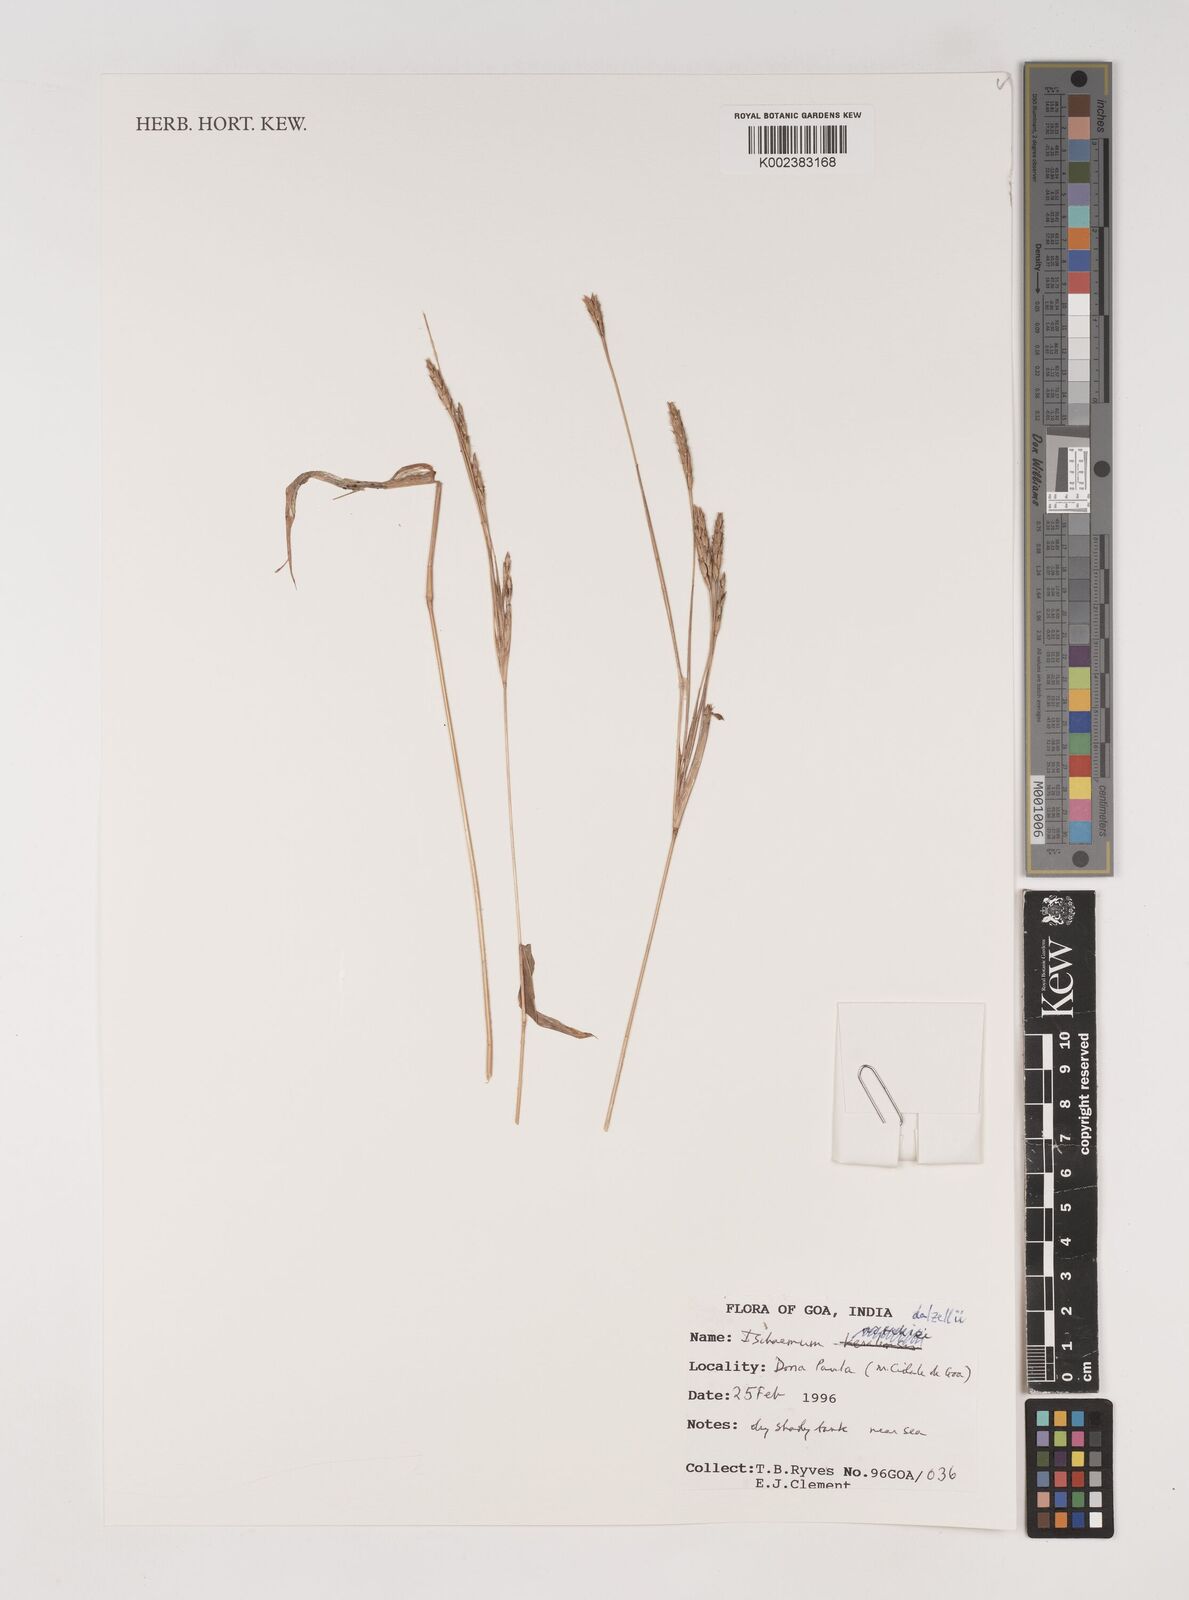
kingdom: Plantae
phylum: Tracheophyta
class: Liliopsida
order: Poales
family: Poaceae
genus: Ischaemum
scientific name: Ischaemum dalzellii
